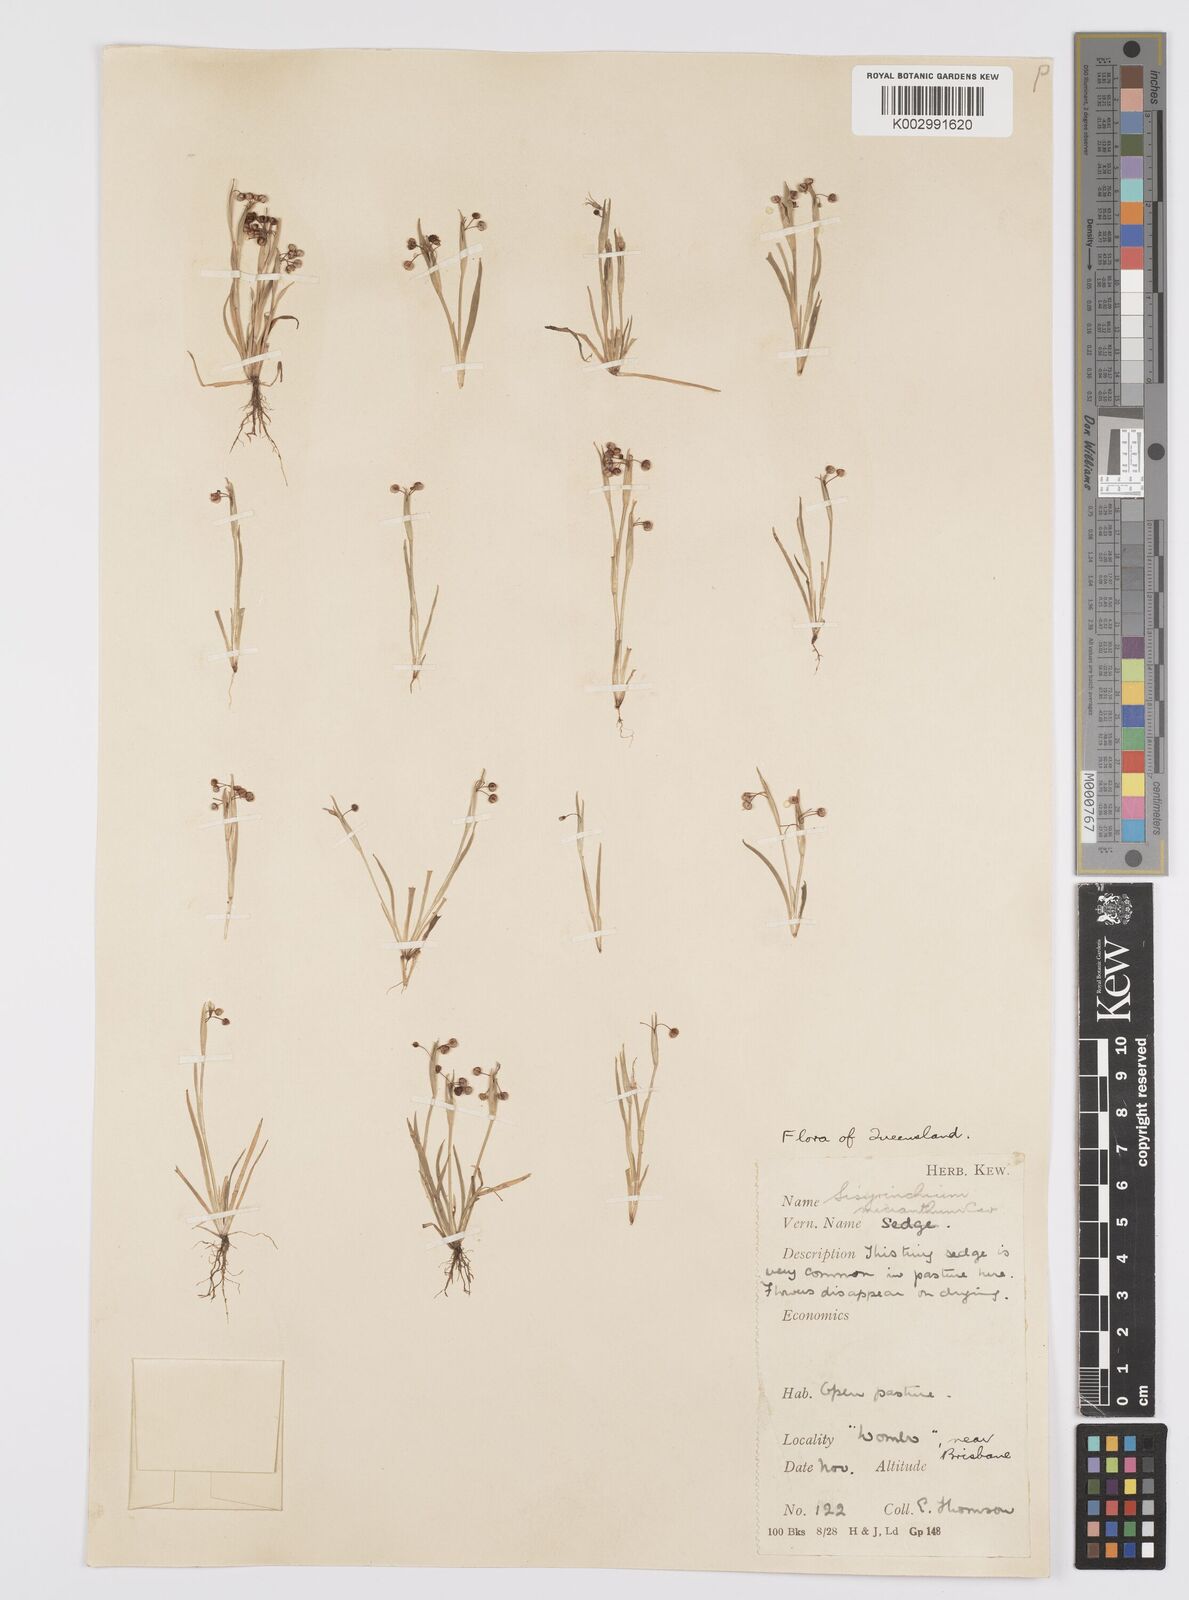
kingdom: Plantae
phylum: Tracheophyta
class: Liliopsida
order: Asparagales
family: Iridaceae
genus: Sisyrinchium
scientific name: Sisyrinchium micranthum
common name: Bermuda pigroot
